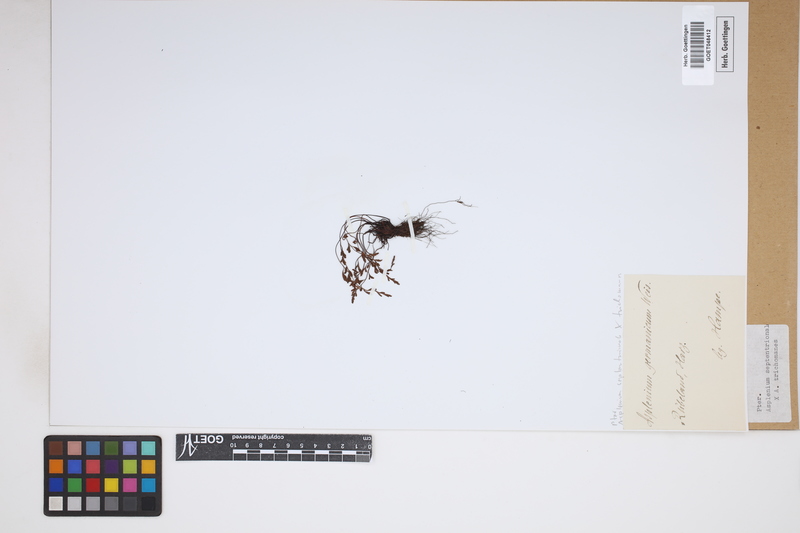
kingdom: Plantae
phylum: Tracheophyta
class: Polypodiopsida
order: Polypodiales
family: Aspleniaceae
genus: Asplenium
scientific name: Asplenium
